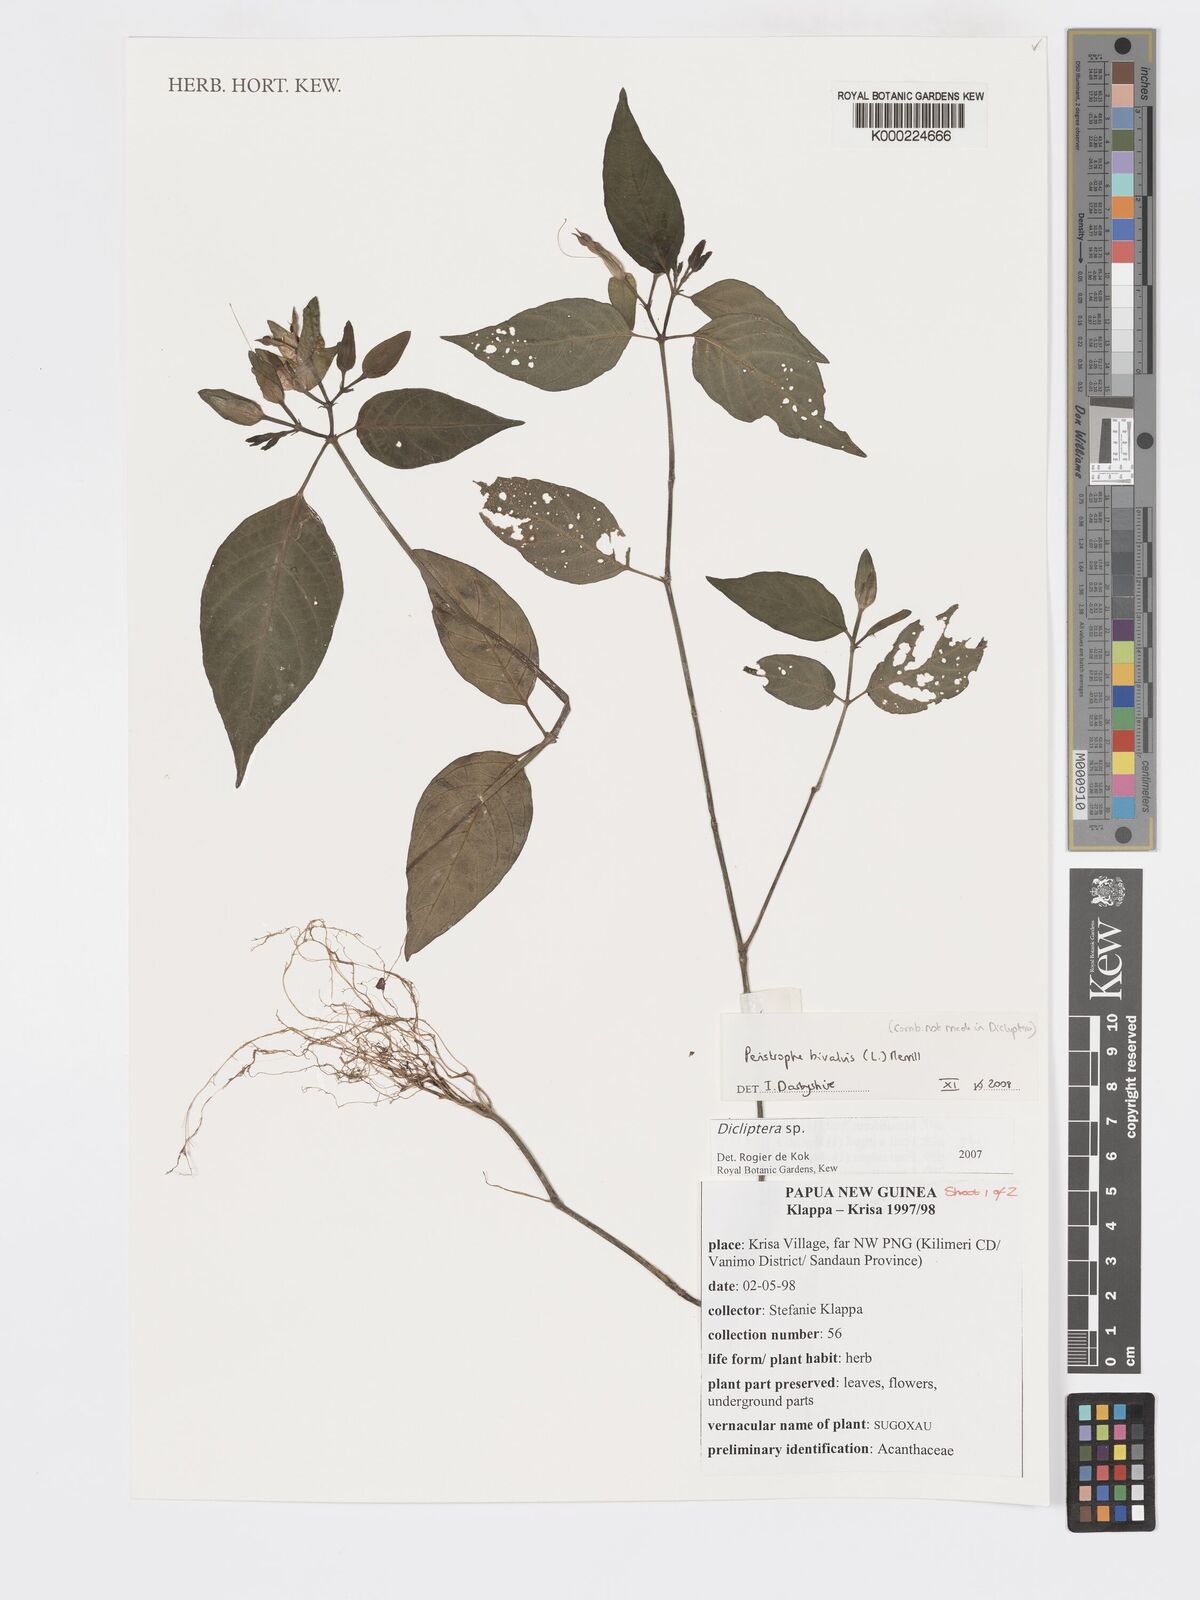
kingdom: Plantae
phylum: Tracheophyta
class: Magnoliopsida
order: Lamiales
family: Acanthaceae
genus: Dicliptera
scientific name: Dicliptera
